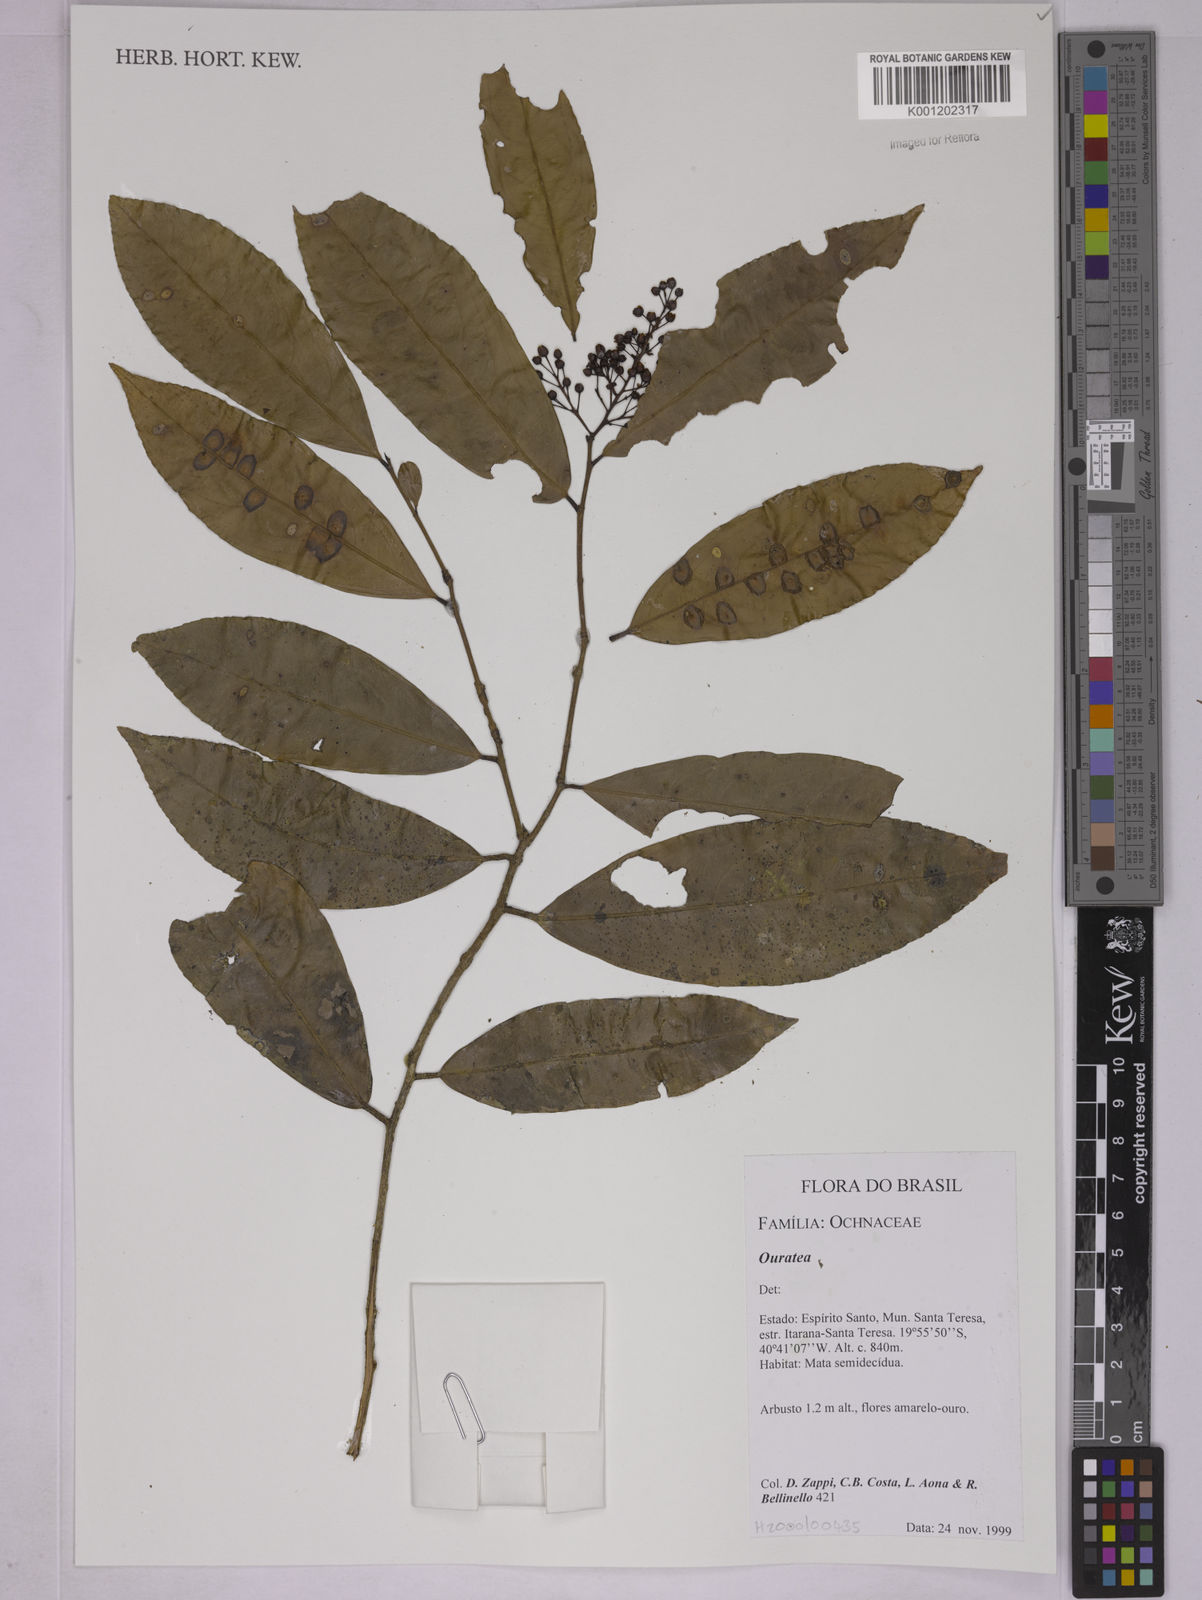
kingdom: Plantae
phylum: Tracheophyta
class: Magnoliopsida
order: Malpighiales
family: Ochnaceae
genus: Ouratea
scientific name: Ouratea
